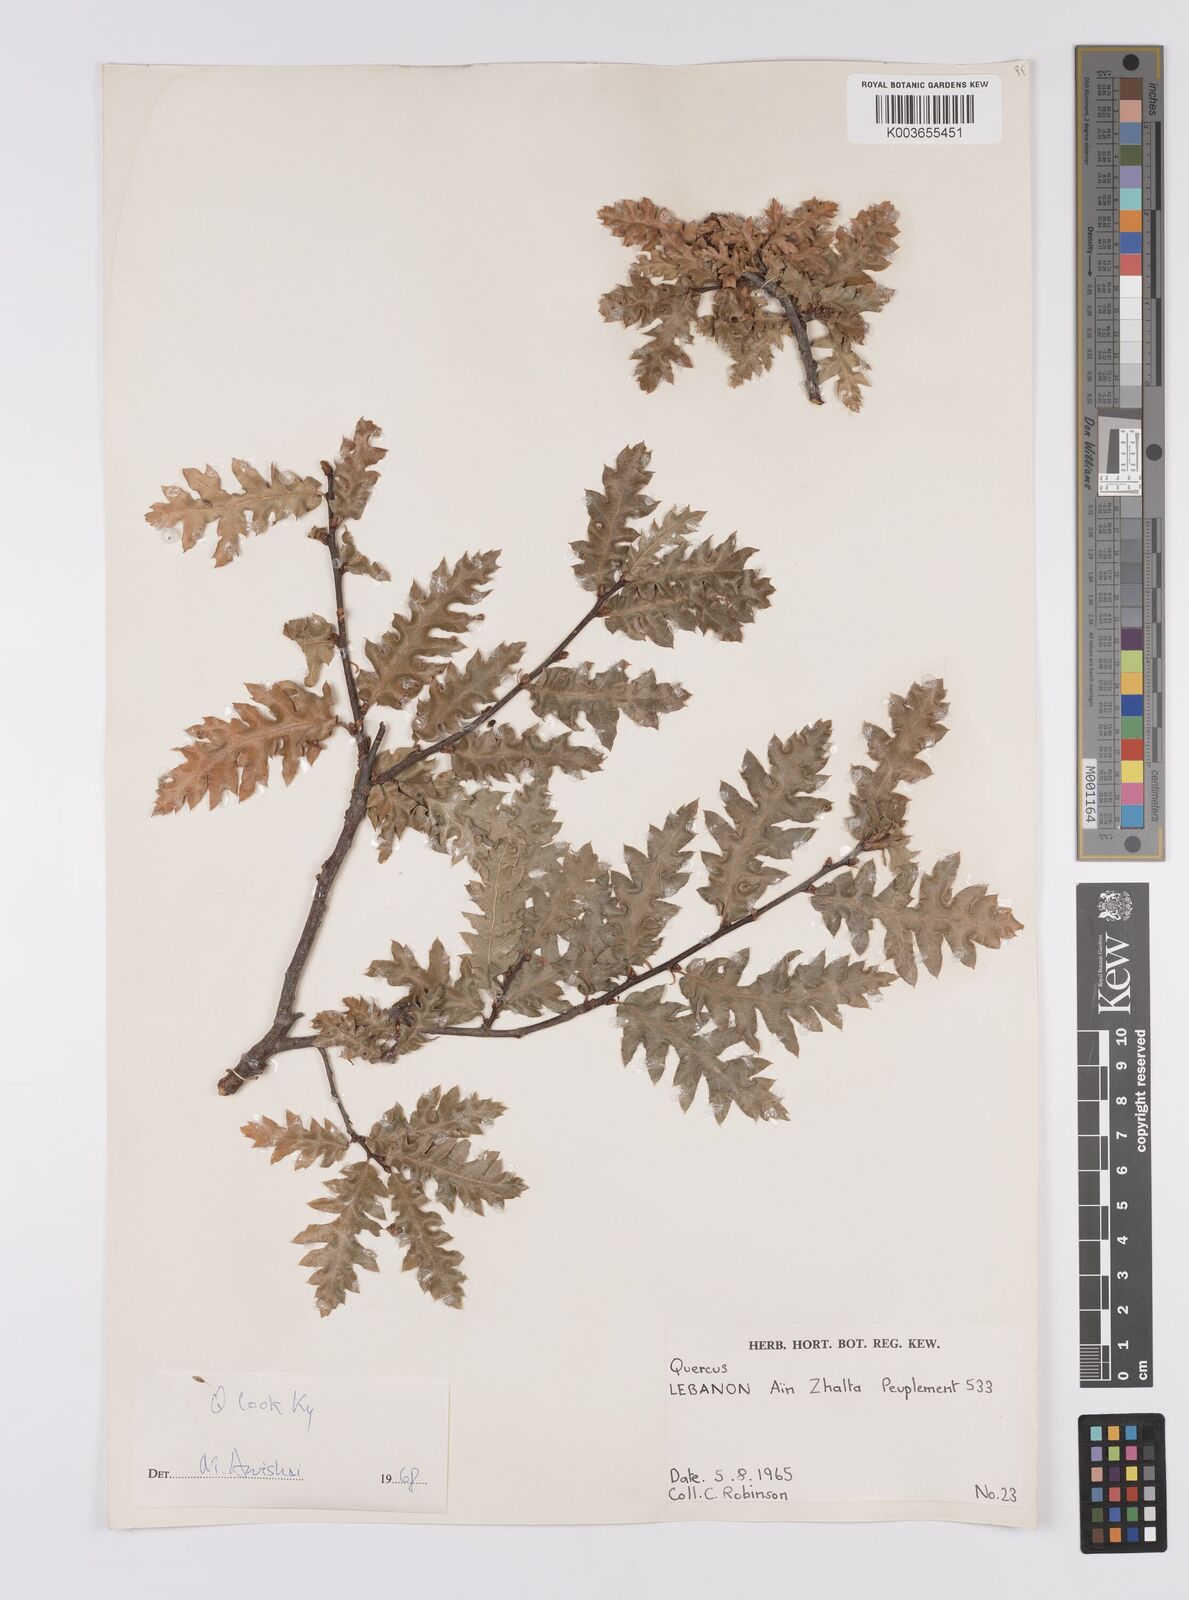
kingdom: Plantae
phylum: Tracheophyta
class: Magnoliopsida
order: Fagales
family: Fagaceae
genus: Quercus
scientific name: Quercus look
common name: Look oak
